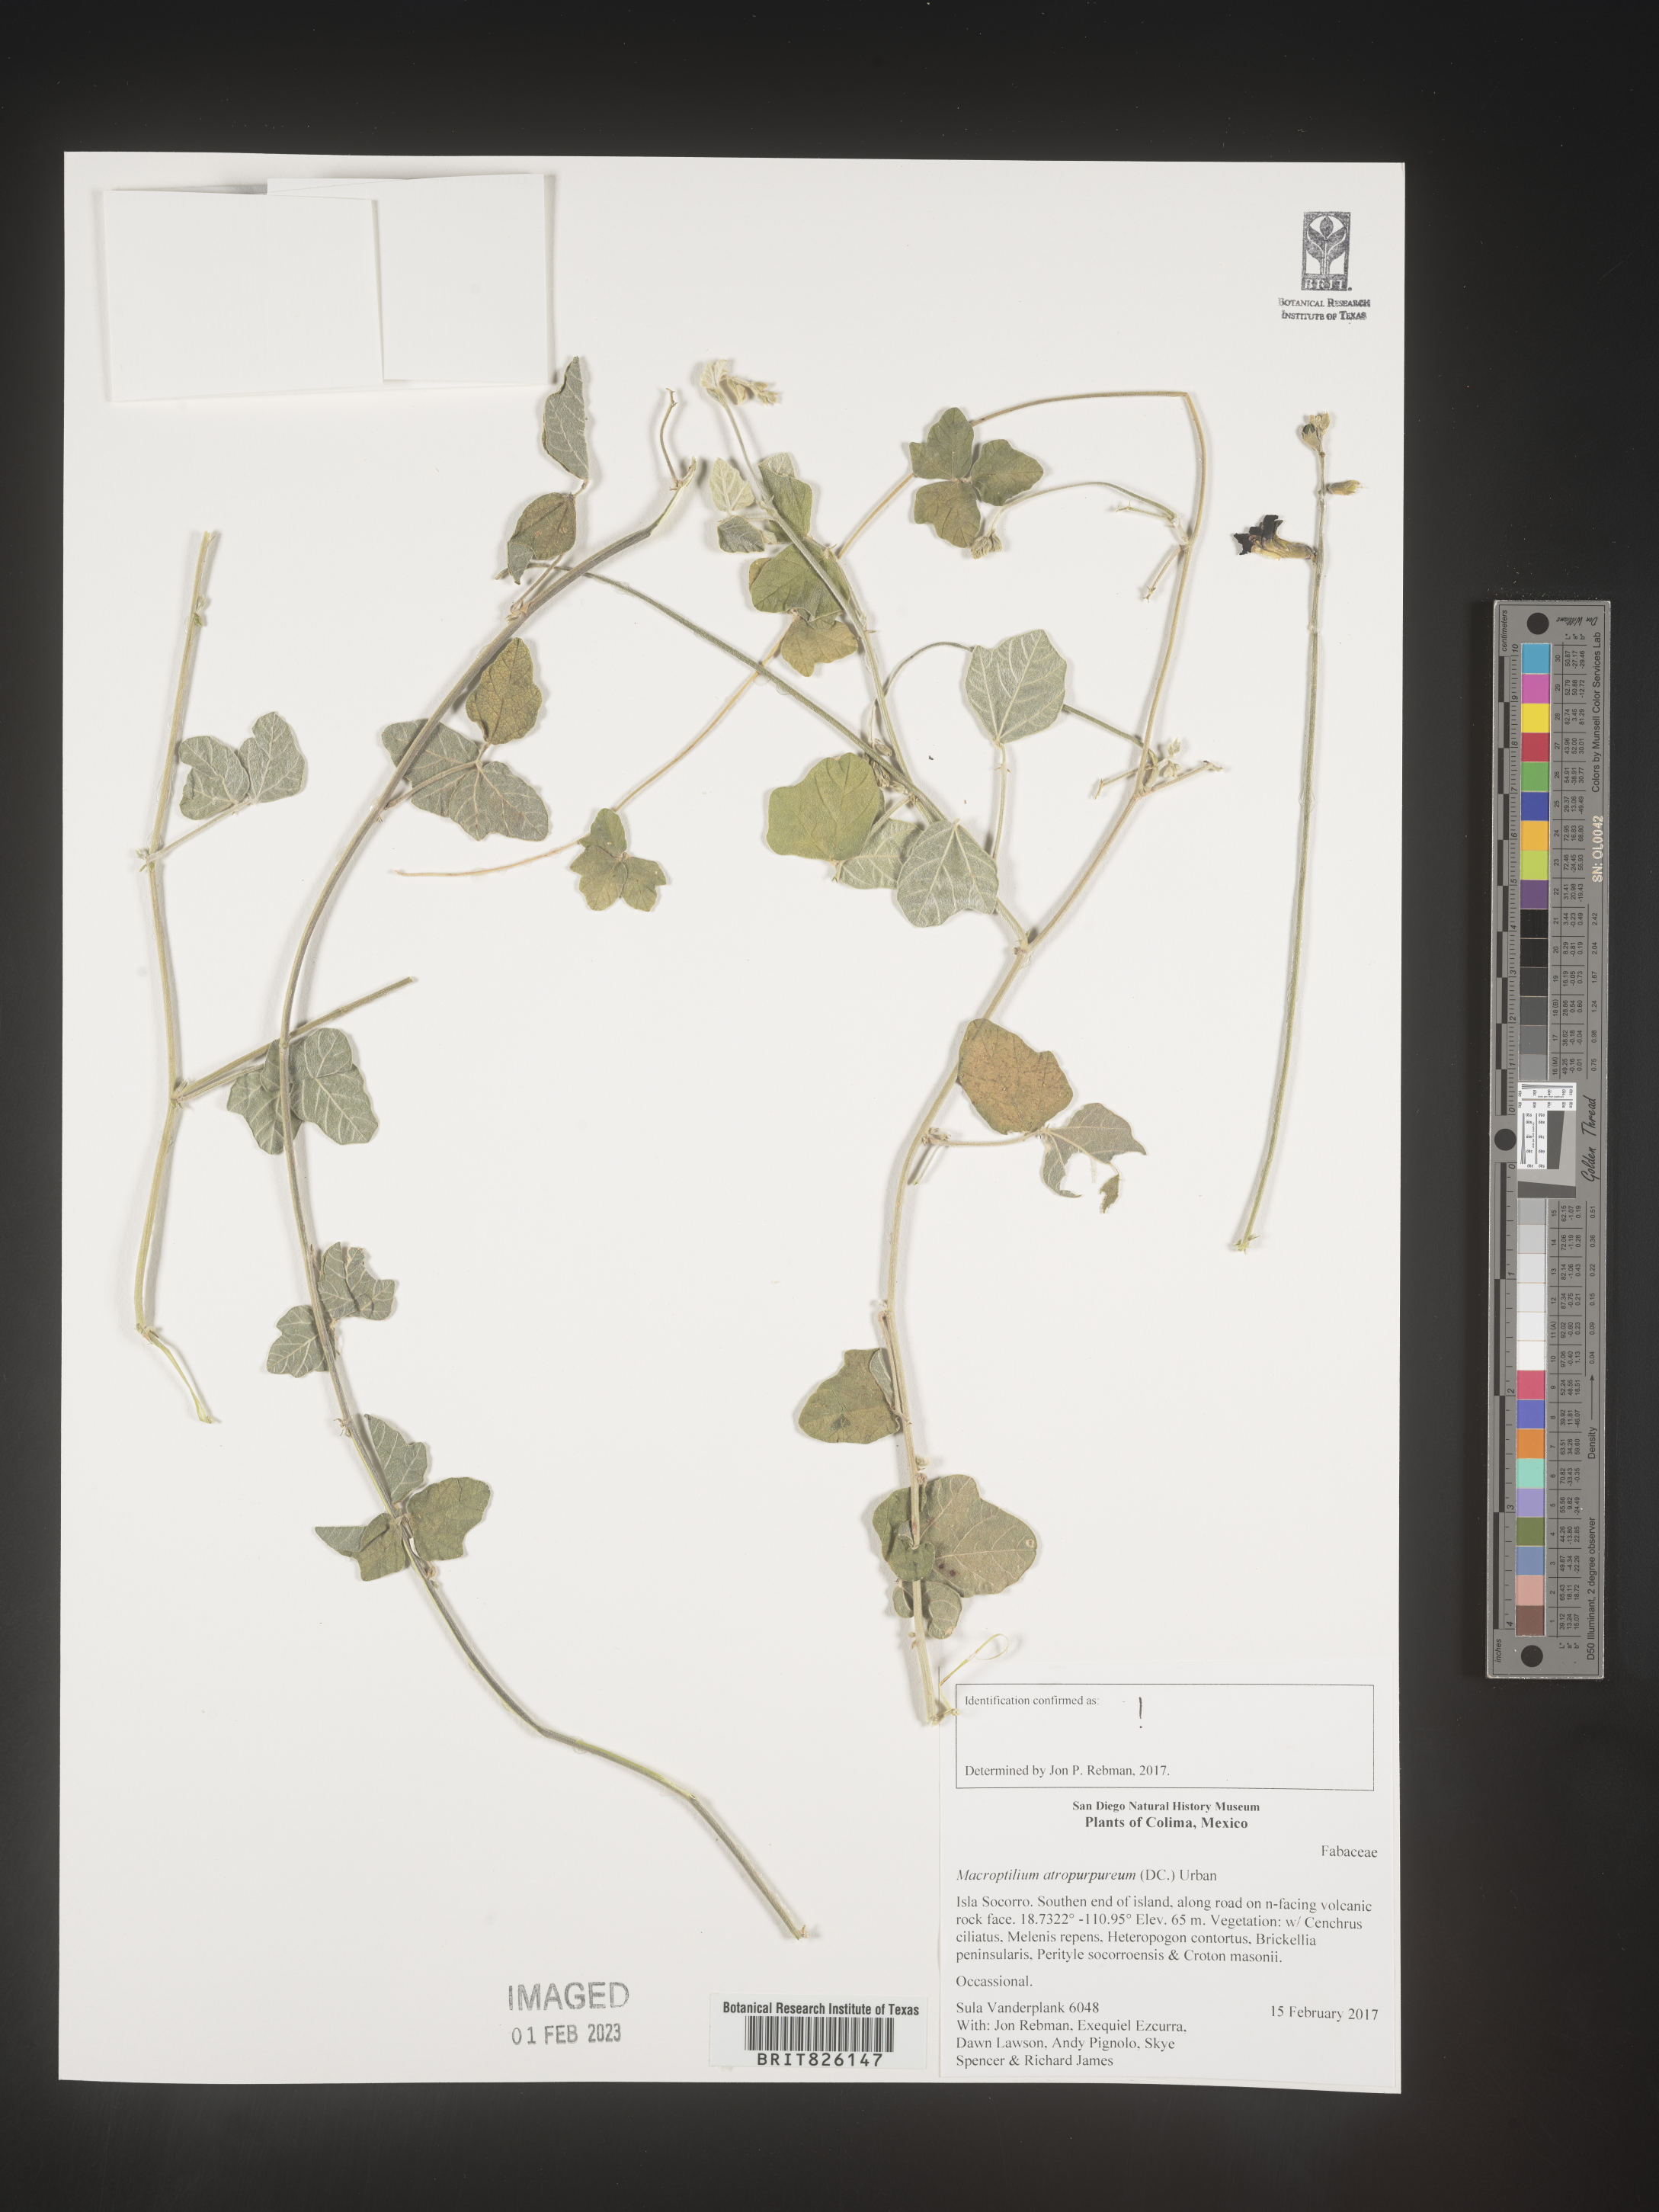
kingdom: Plantae
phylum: Tracheophyta
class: Magnoliopsida
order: Fabales
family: Fabaceae
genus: Macroptilium
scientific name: Macroptilium
